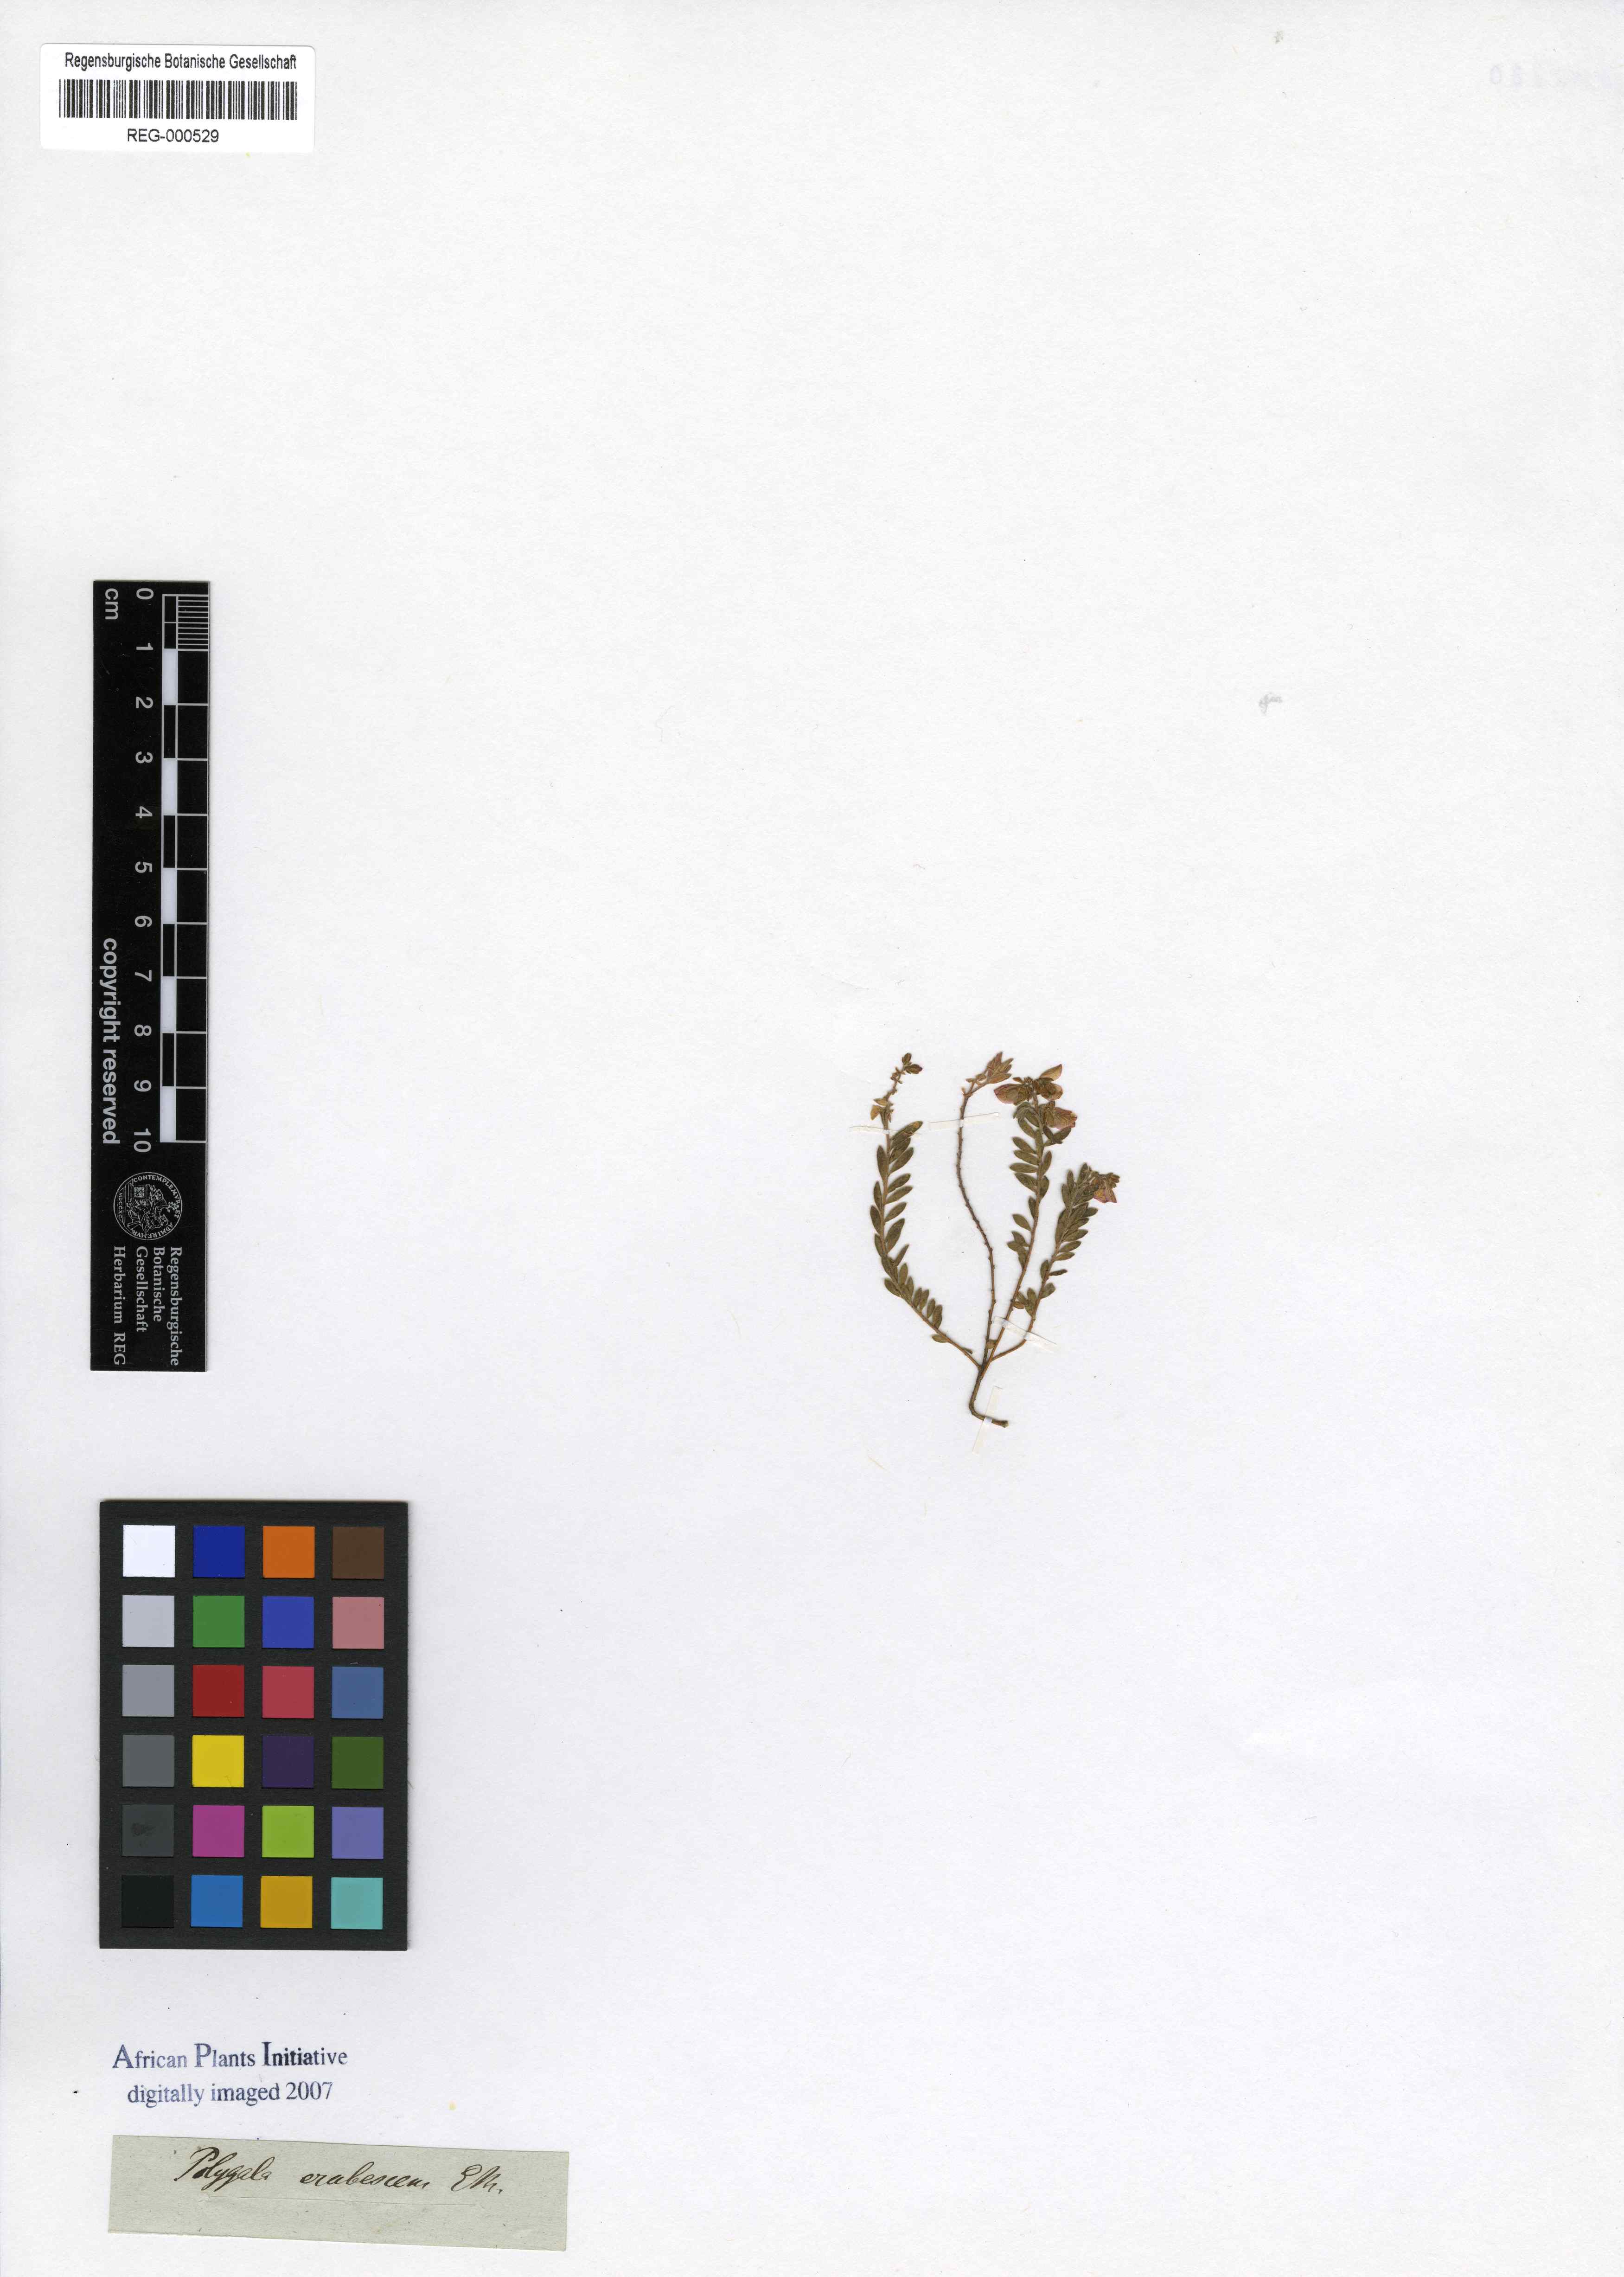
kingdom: Plantae
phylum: Tracheophyta
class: Magnoliopsida
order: Fabales
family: Polygalaceae
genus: Polygala
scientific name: Polygala erubescens
